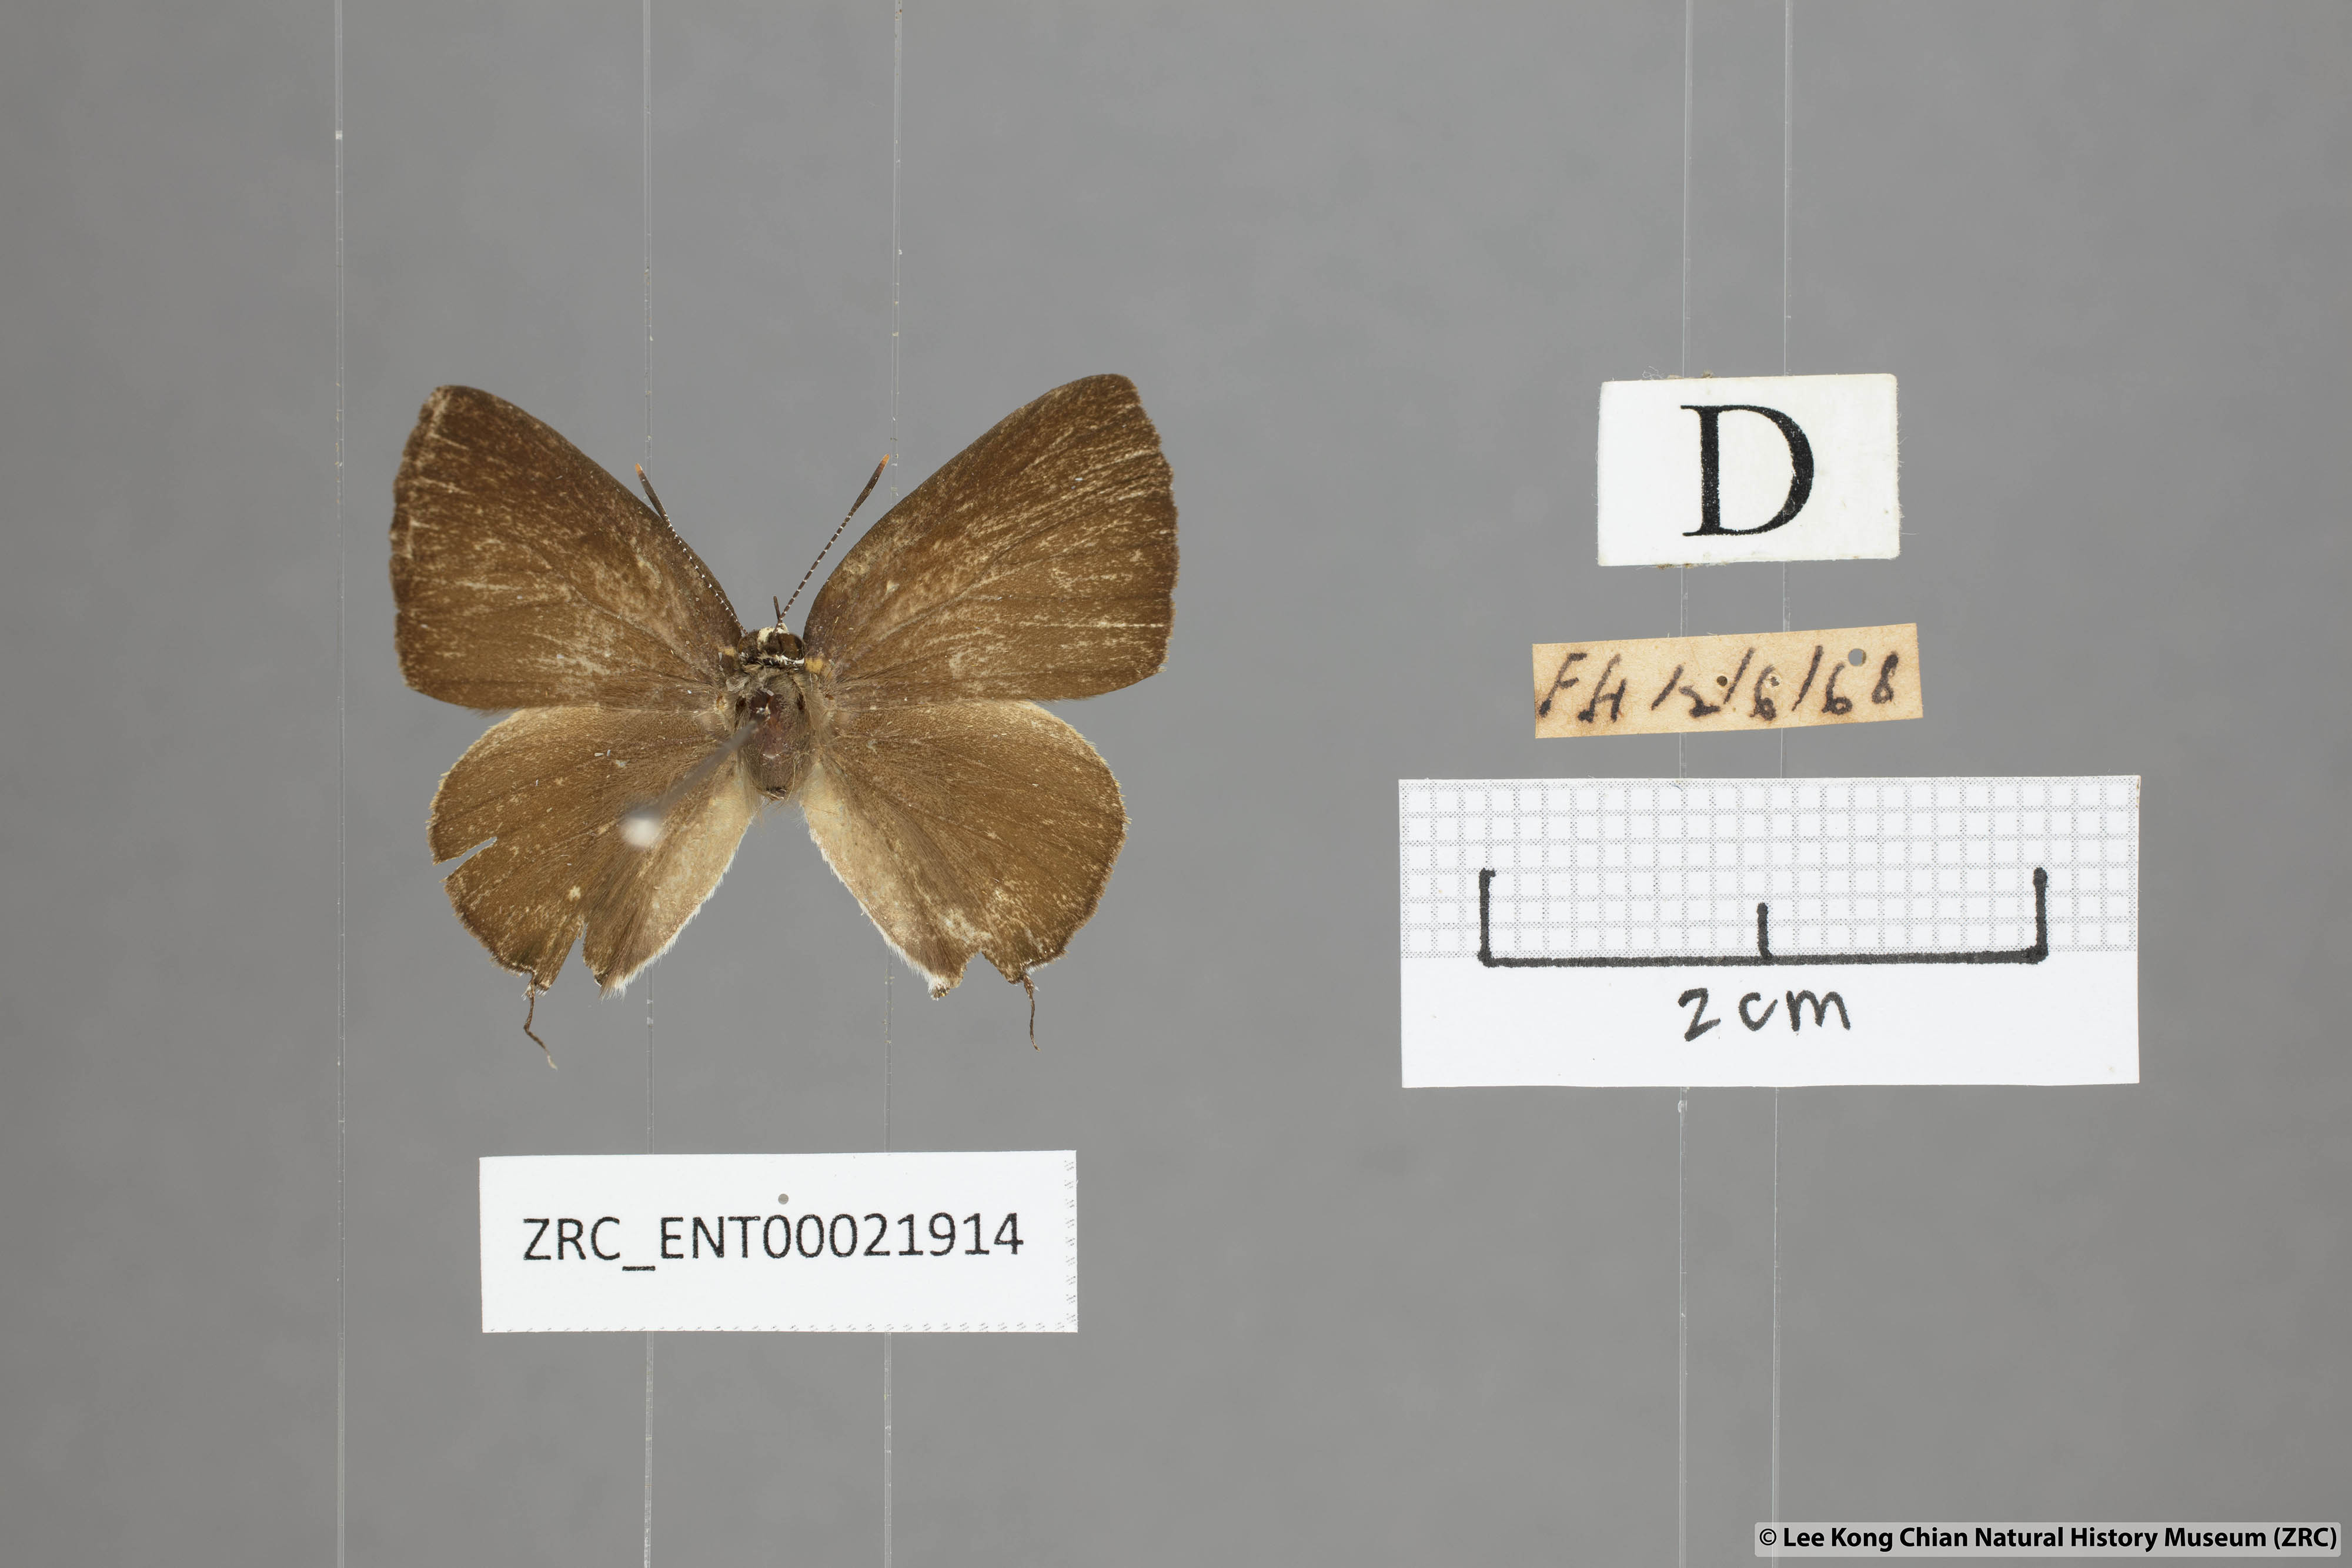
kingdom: Animalia
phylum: Arthropoda
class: Insecta
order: Lepidoptera
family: Lycaenidae
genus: Rapala
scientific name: Rapala suffusa
